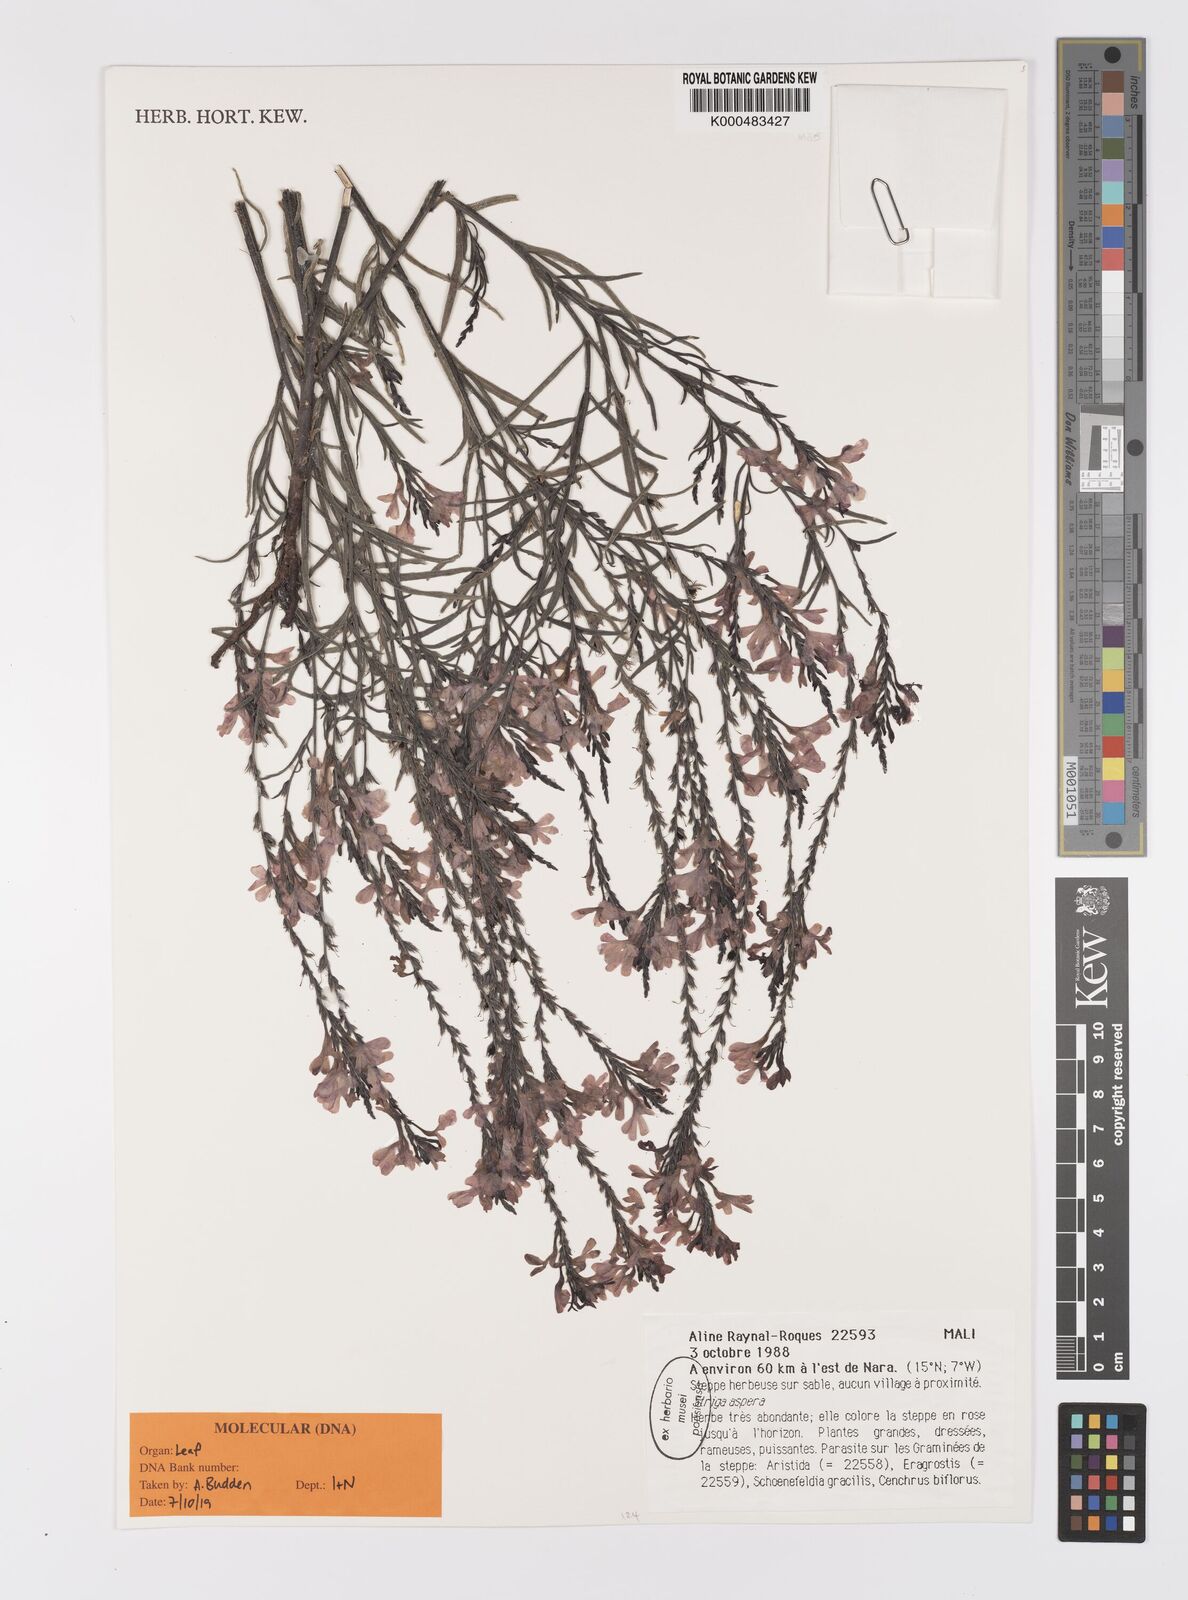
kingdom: Plantae
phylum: Tracheophyta
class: Magnoliopsida
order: Lamiales
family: Orobanchaceae
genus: Striga
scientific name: Striga aspera
